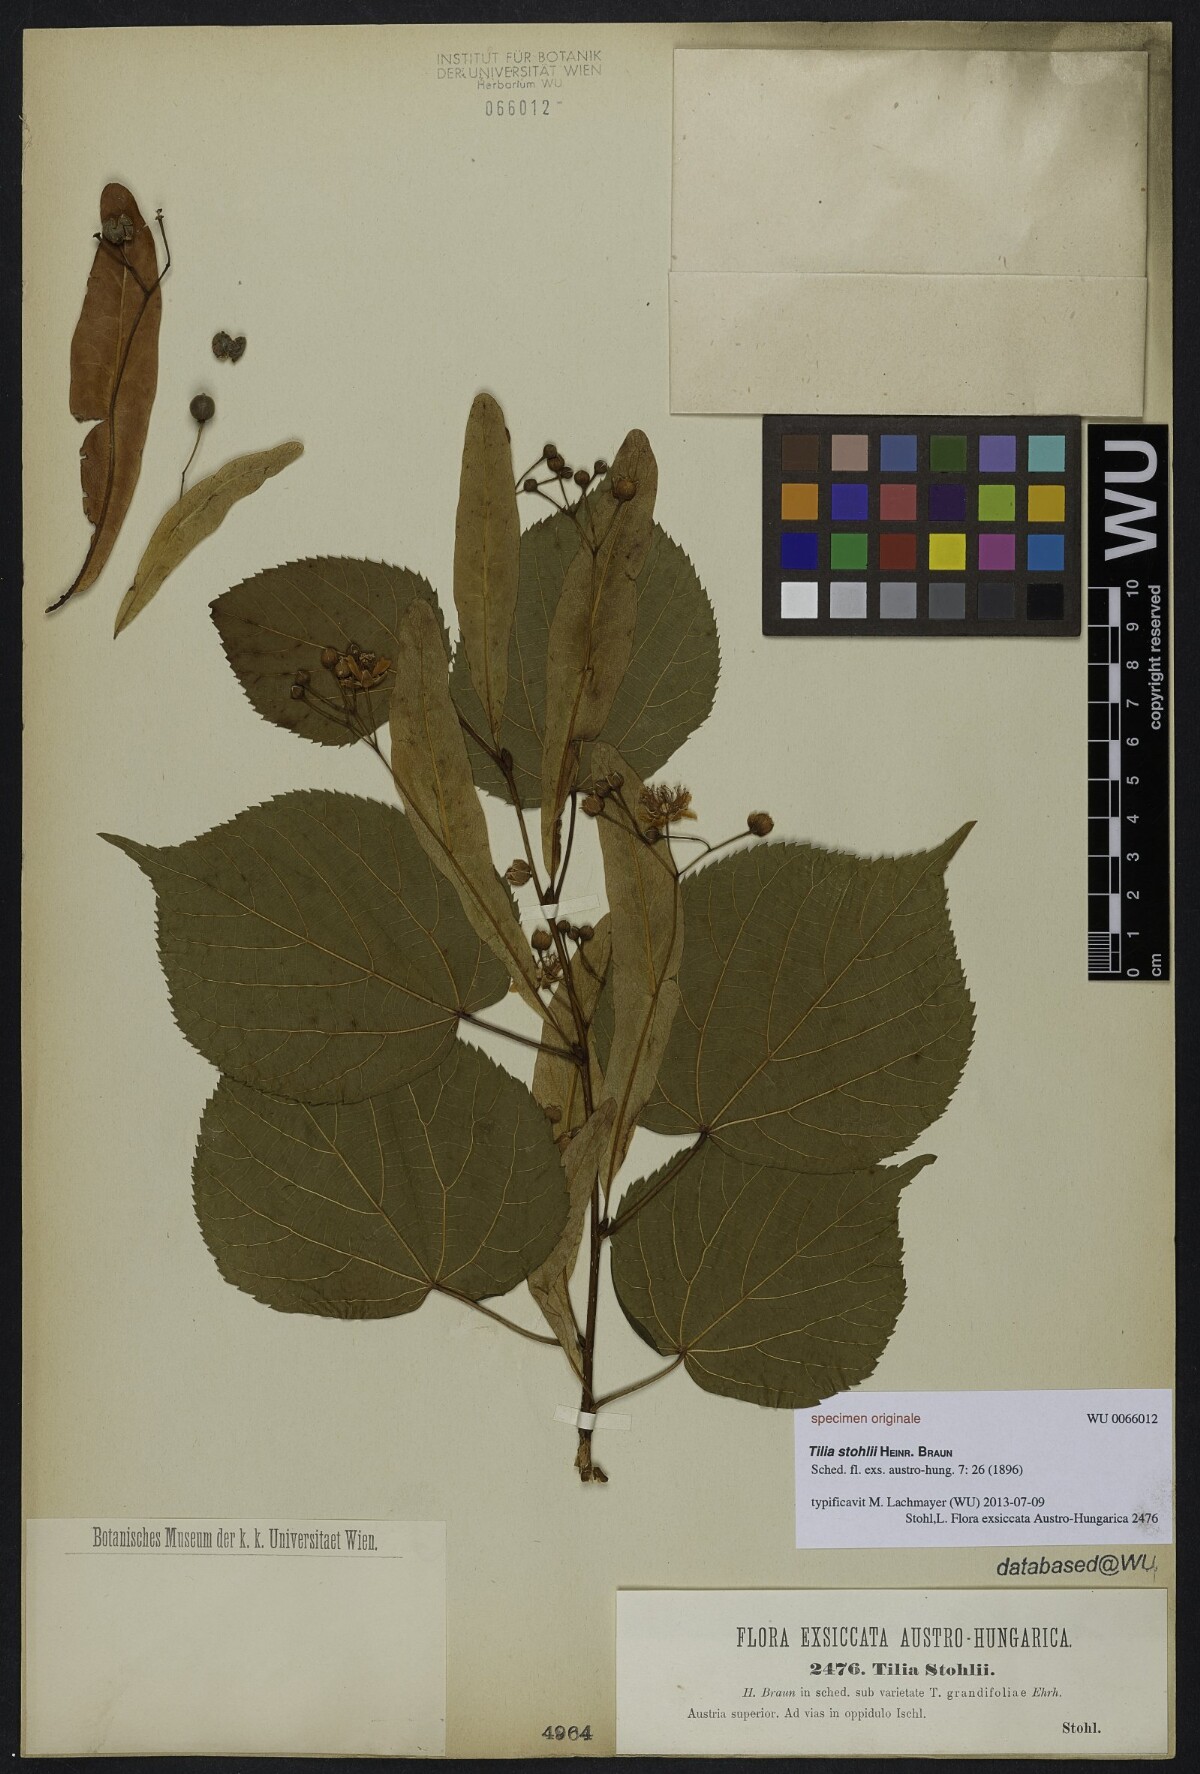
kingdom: Plantae
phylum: Tracheophyta
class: Magnoliopsida
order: Malvales
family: Malvaceae
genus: Tilia
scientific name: Tilia stohlii
